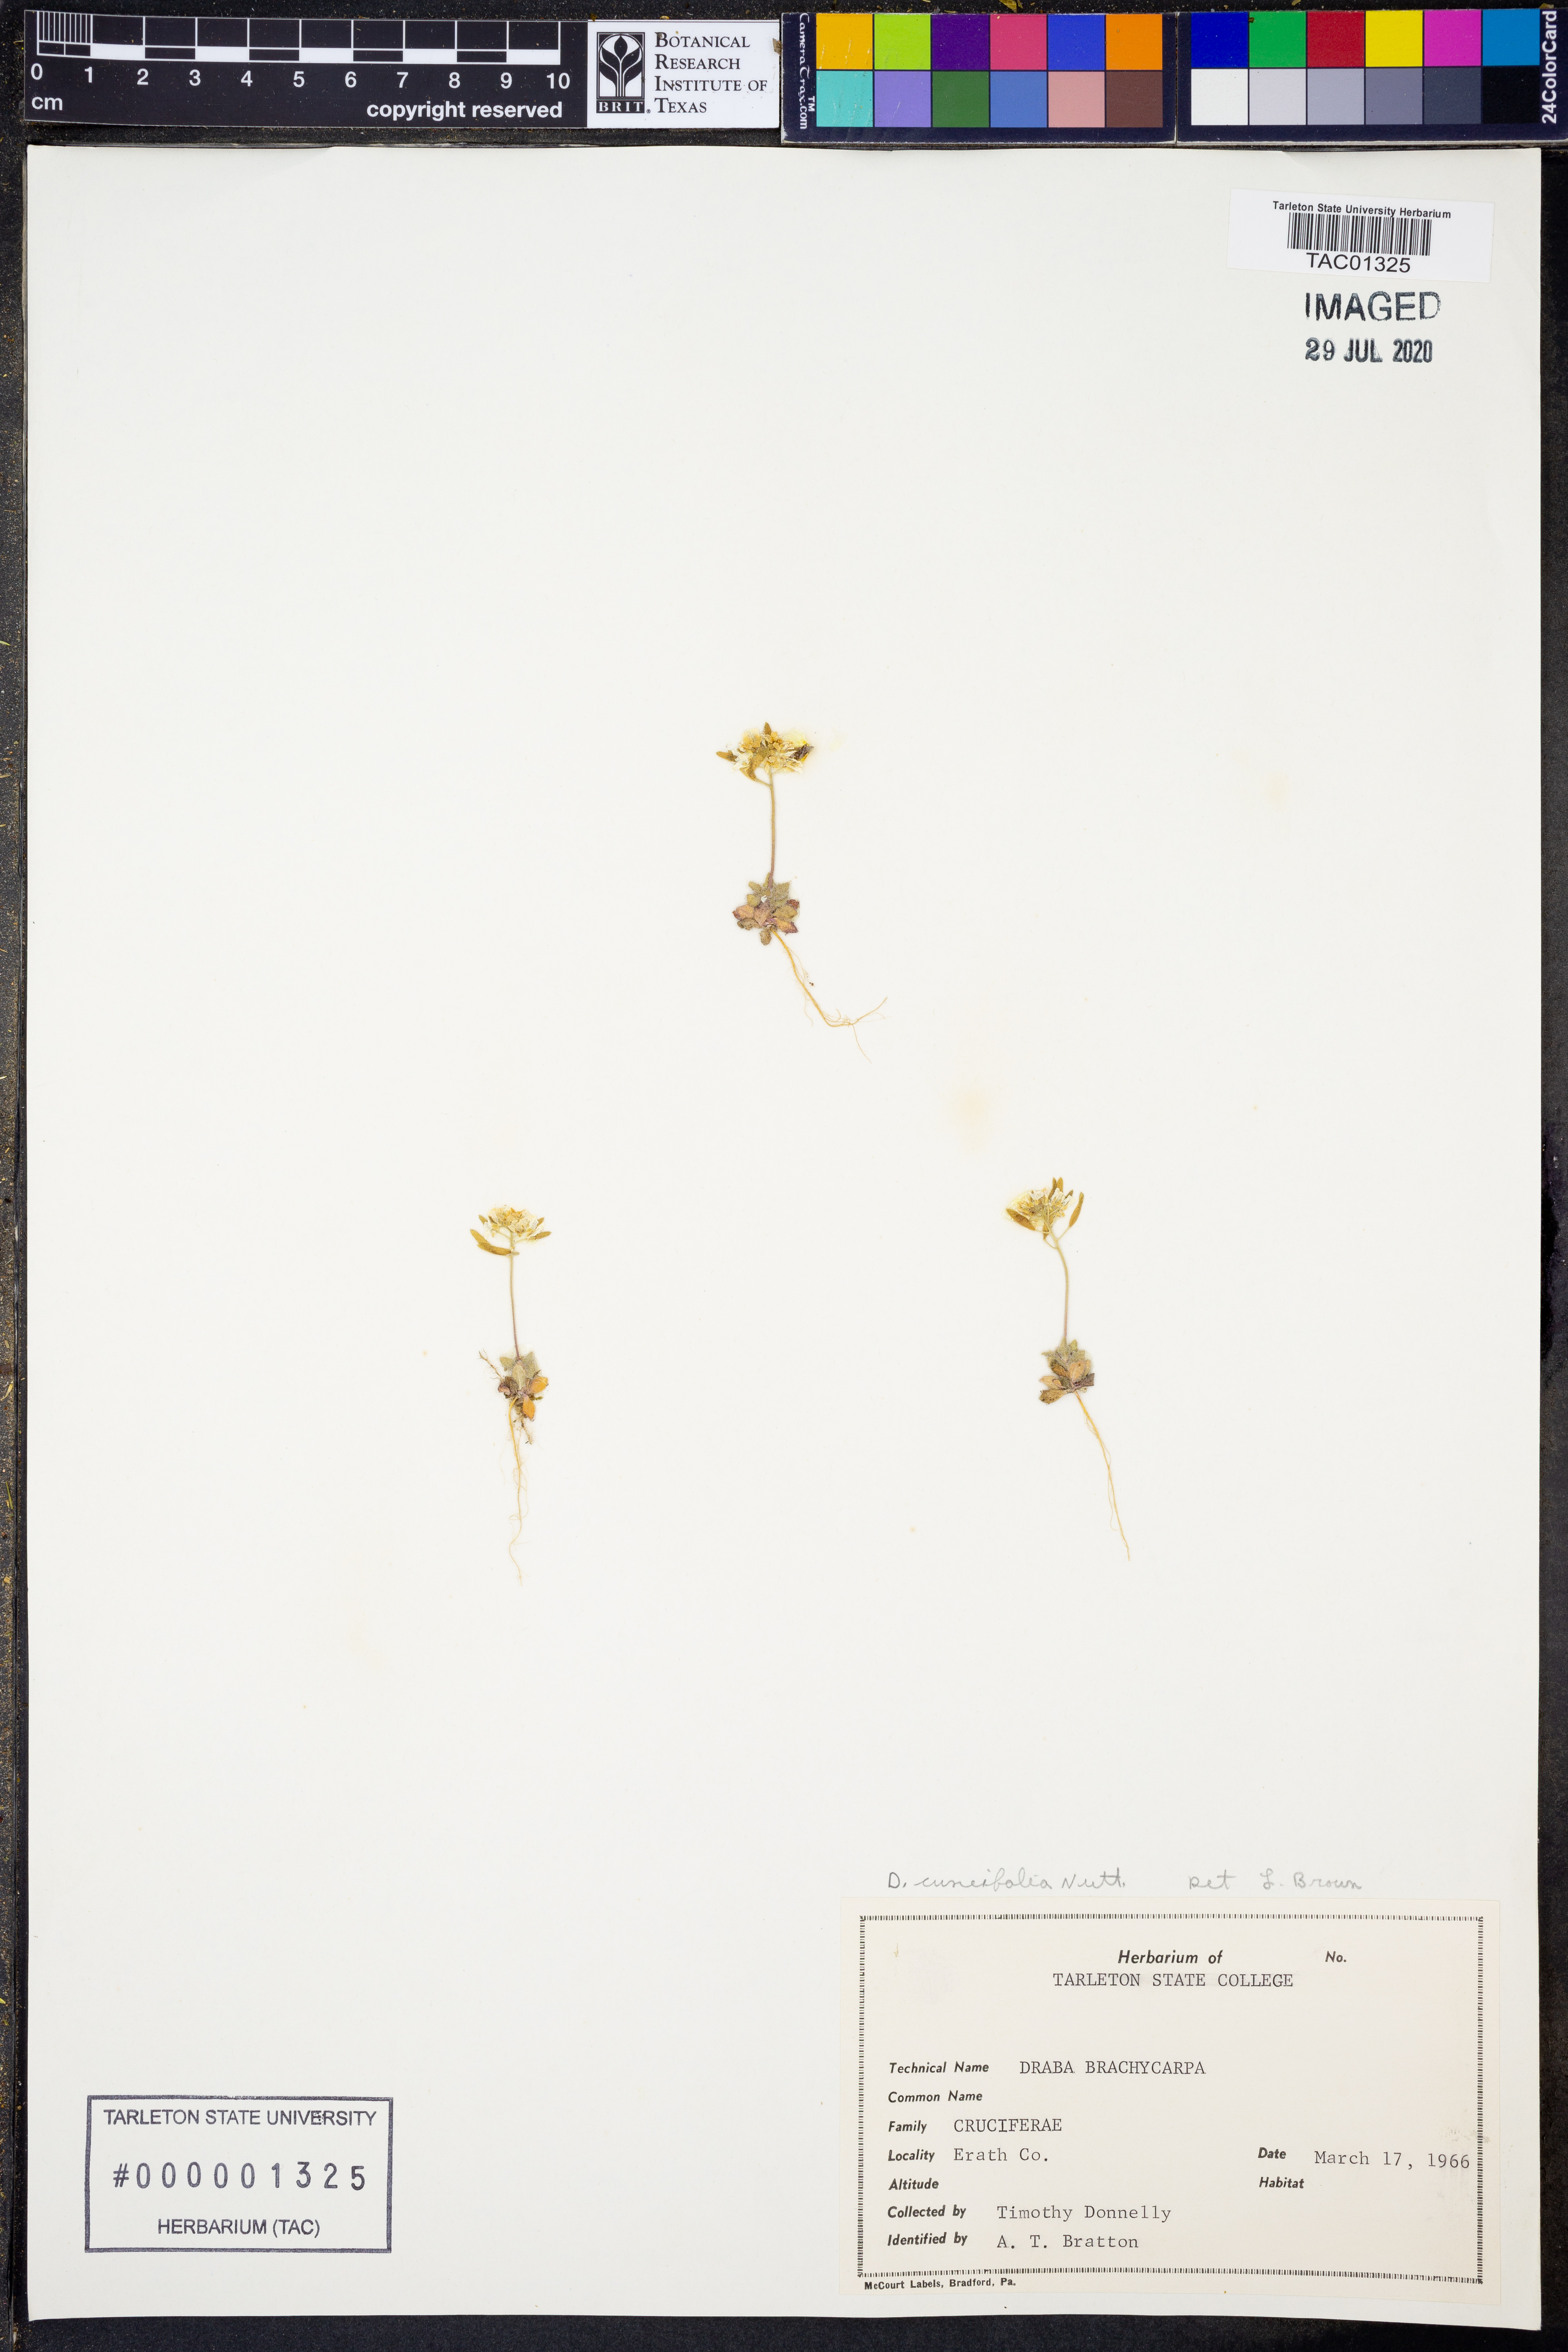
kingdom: Plantae
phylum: Tracheophyta
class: Magnoliopsida
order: Brassicales
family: Brassicaceae
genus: Tomostima
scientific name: Tomostima cuneifolia
